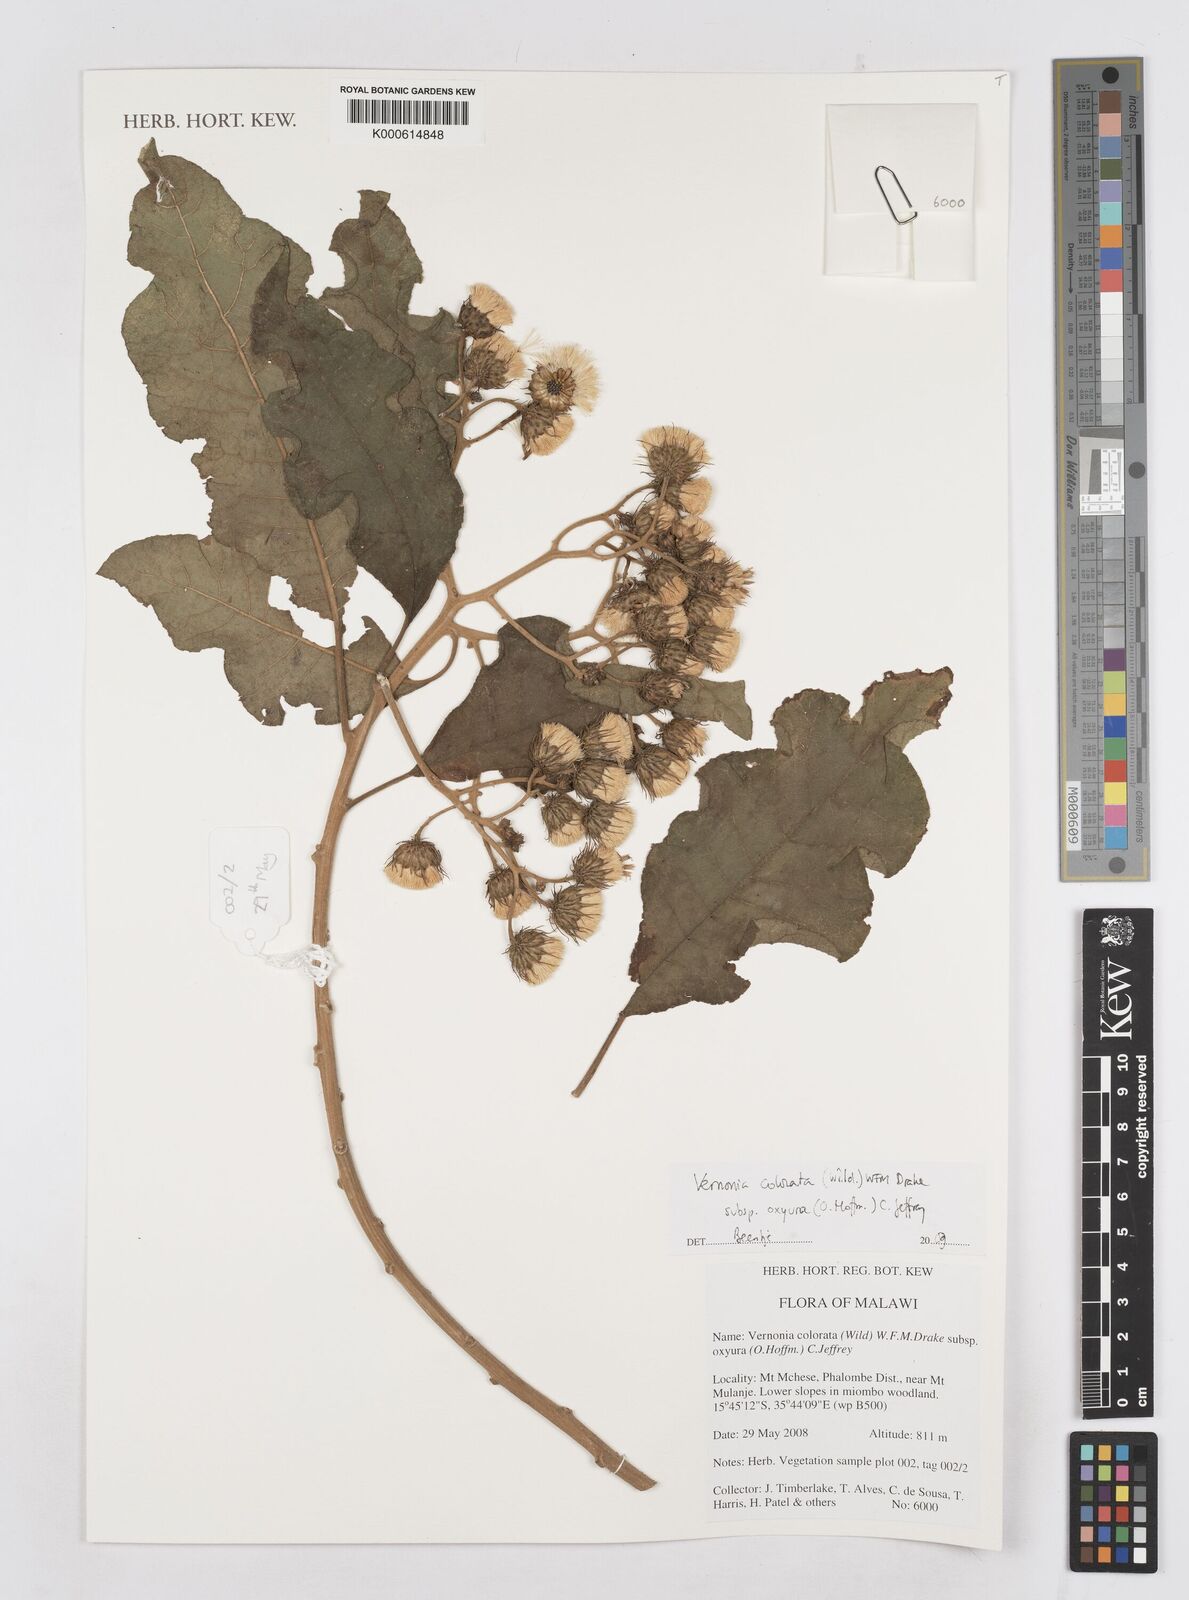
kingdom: Plantae
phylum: Tracheophyta
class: Magnoliopsida
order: Asterales
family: Asteraceae
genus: Vernonia
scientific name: Vernonia colorata
